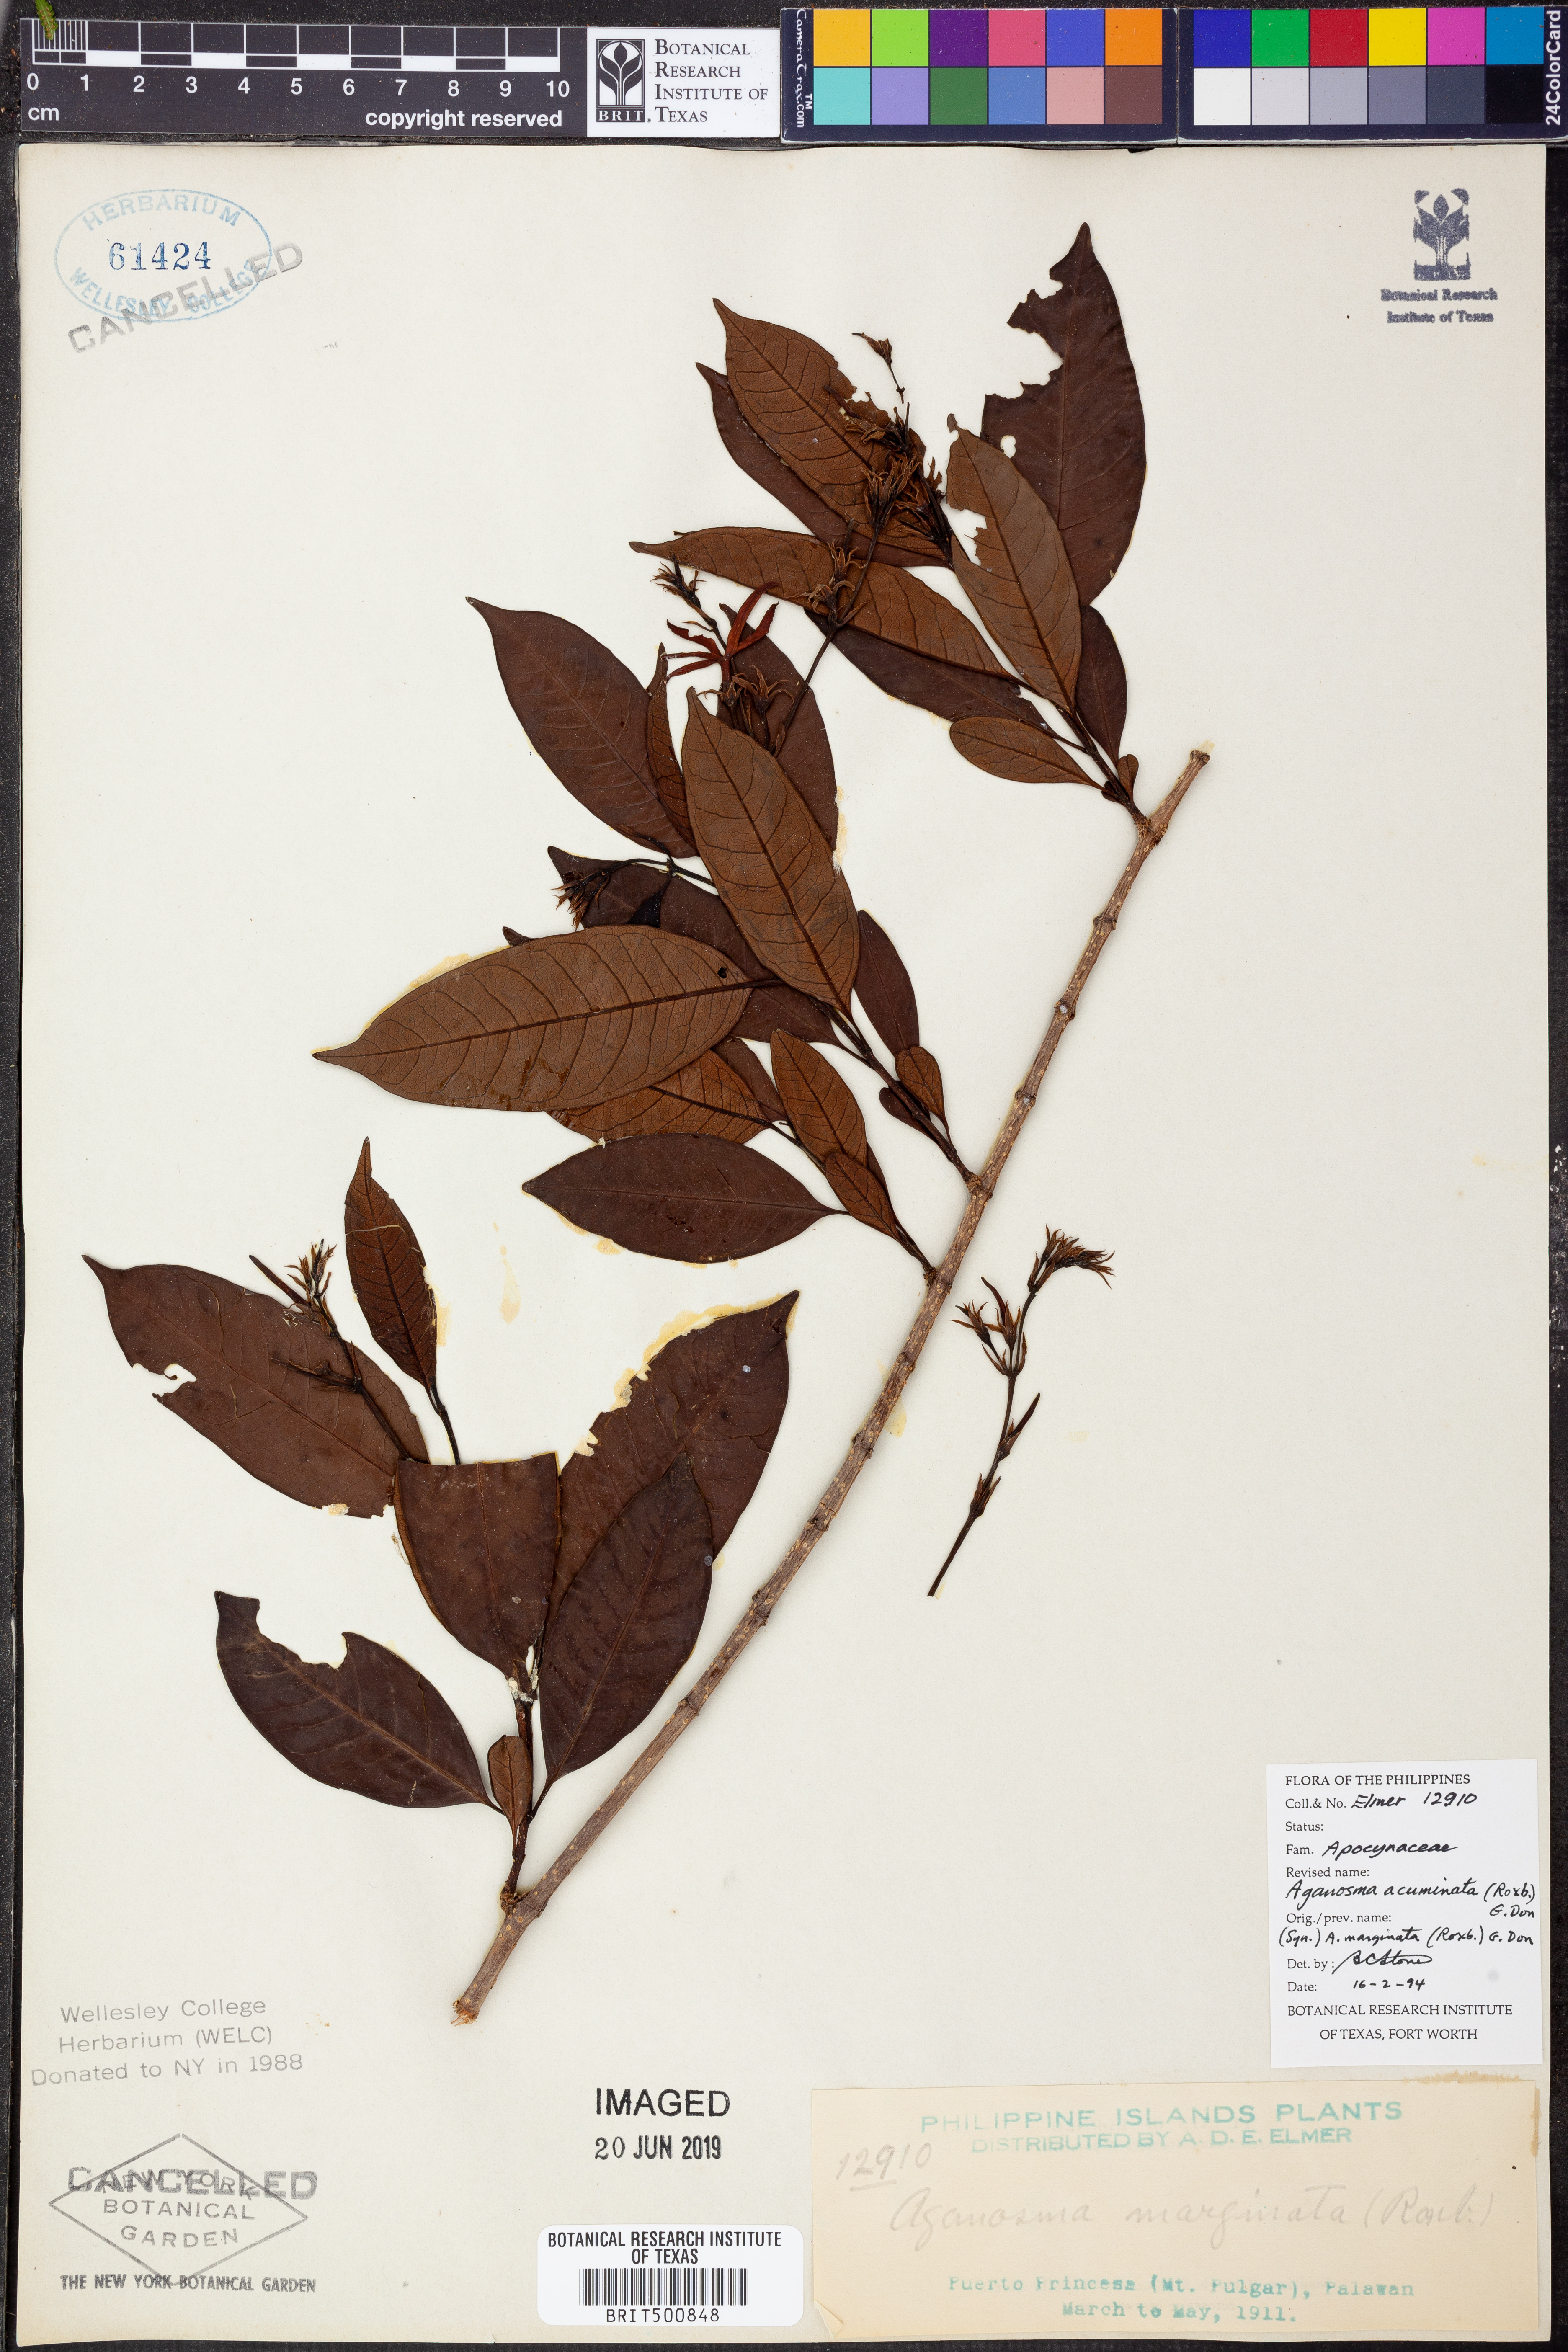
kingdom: Plantae
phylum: Tracheophyta
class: Magnoliopsida
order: Gentianales
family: Apocynaceae
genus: Amphineurion
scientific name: Amphineurion marginatum
